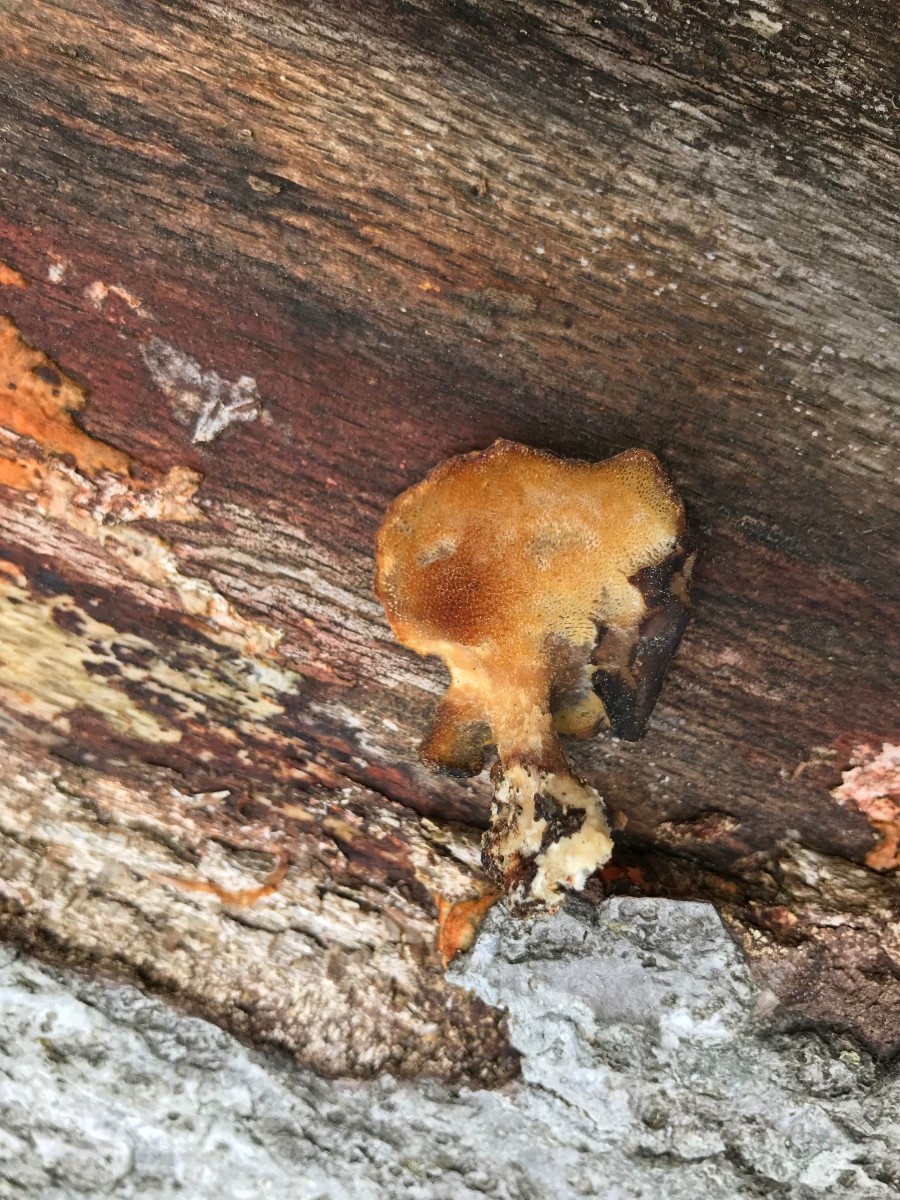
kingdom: Fungi
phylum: Basidiomycota
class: Agaricomycetes
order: Polyporales
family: Polyporaceae
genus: Lentinus
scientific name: Lentinus substrictus
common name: forårs-stilkporesvamp
